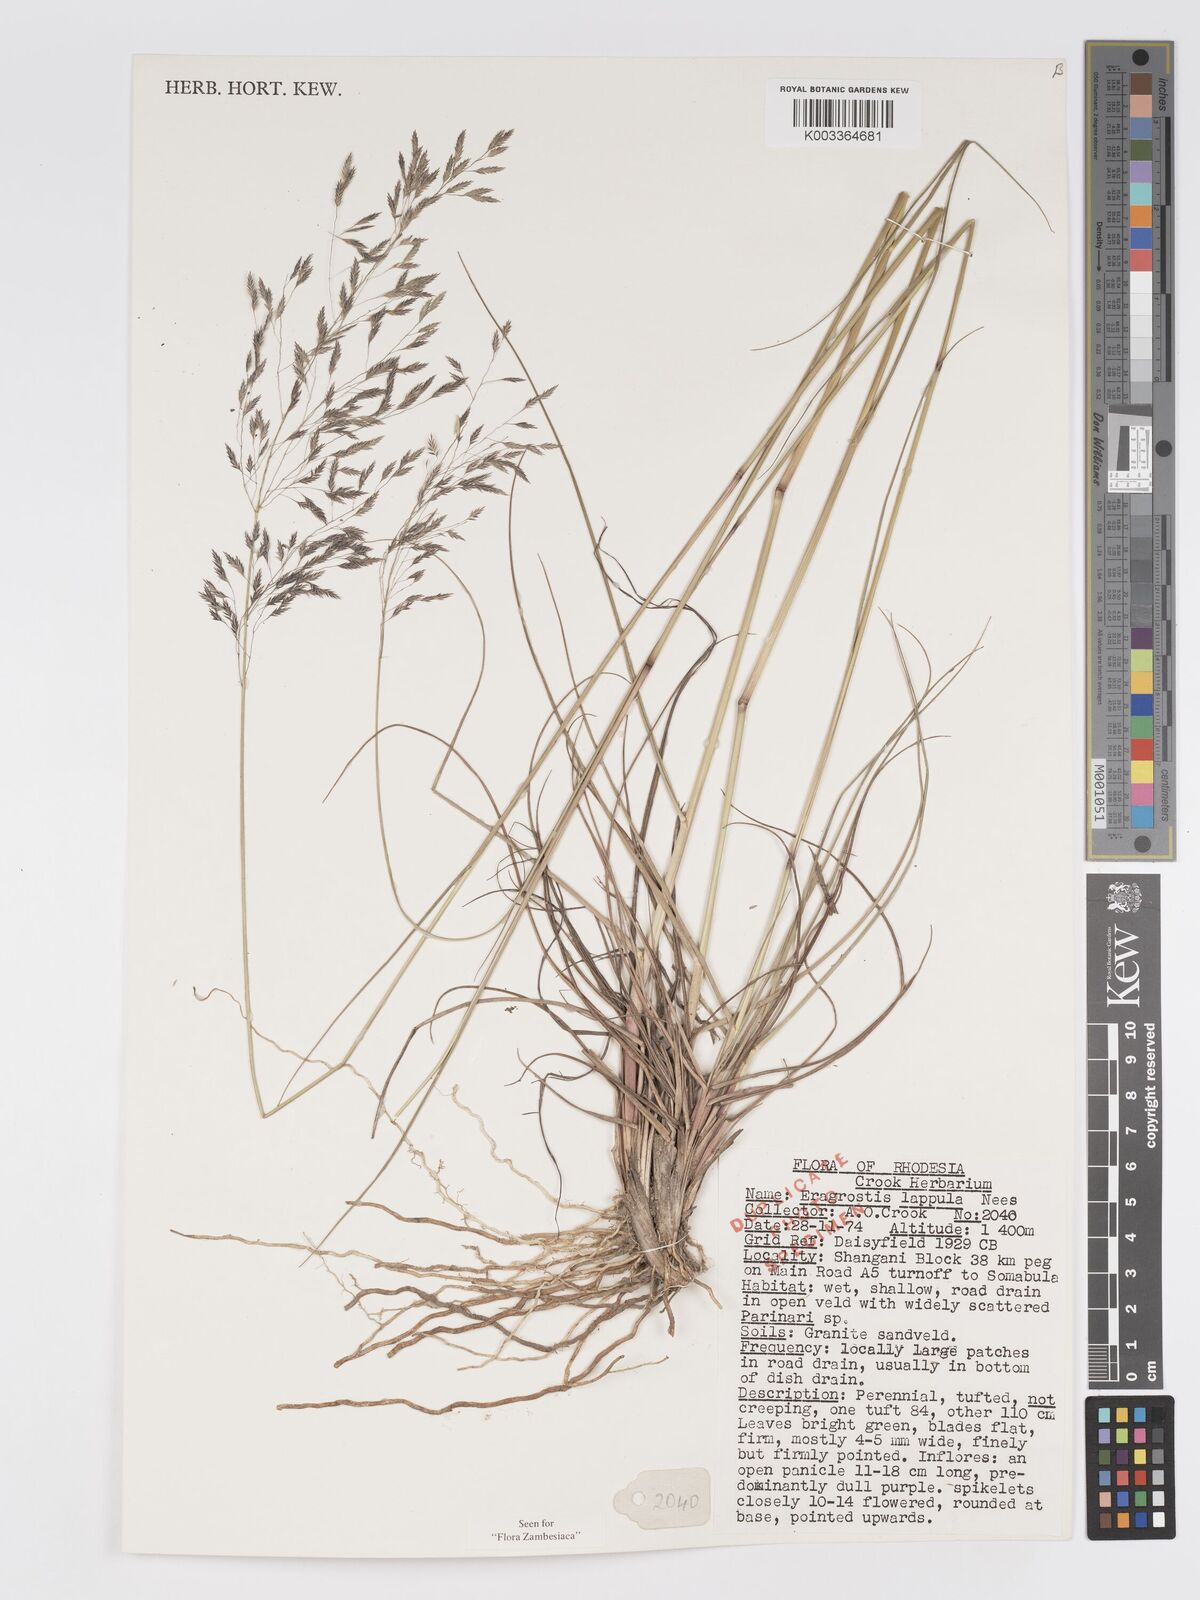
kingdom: Plantae
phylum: Tracheophyta
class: Liliopsida
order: Poales
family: Poaceae
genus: Eragrostis
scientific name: Eragrostis lappula
